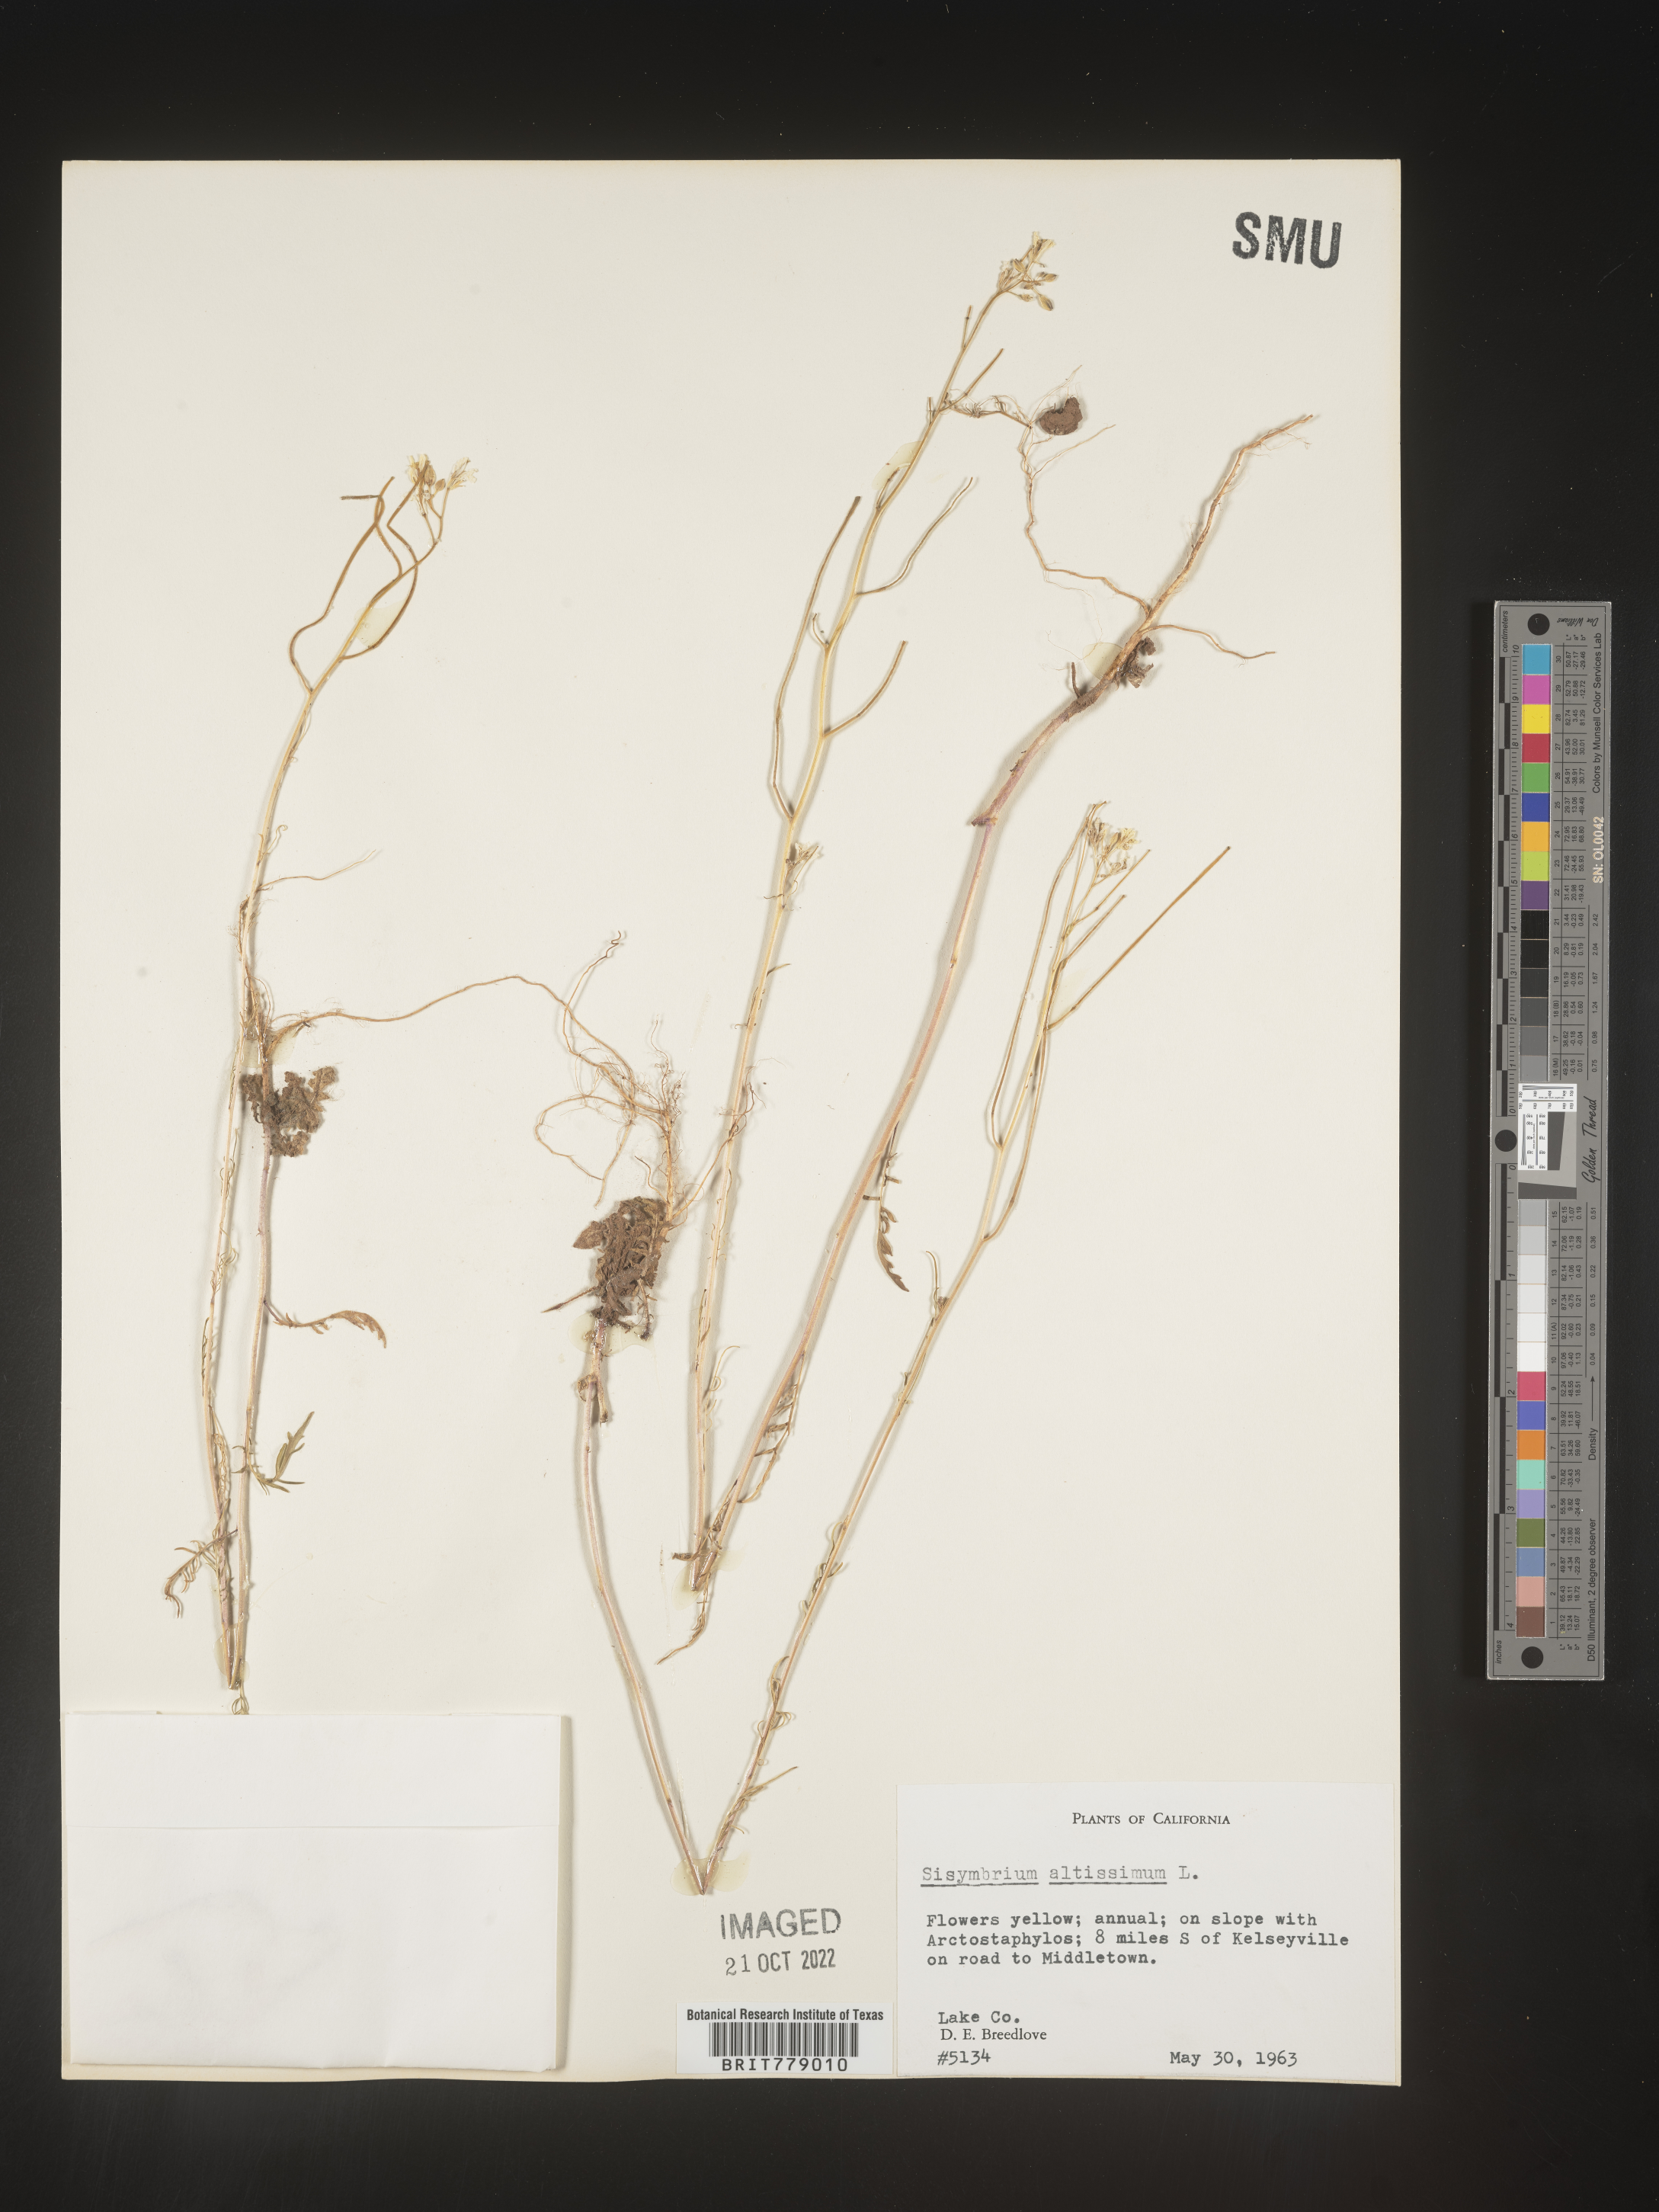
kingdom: Plantae
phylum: Tracheophyta
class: Magnoliopsida
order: Brassicales
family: Brassicaceae
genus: Sisymbrium
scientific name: Sisymbrium altissimum
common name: Tall rocket
